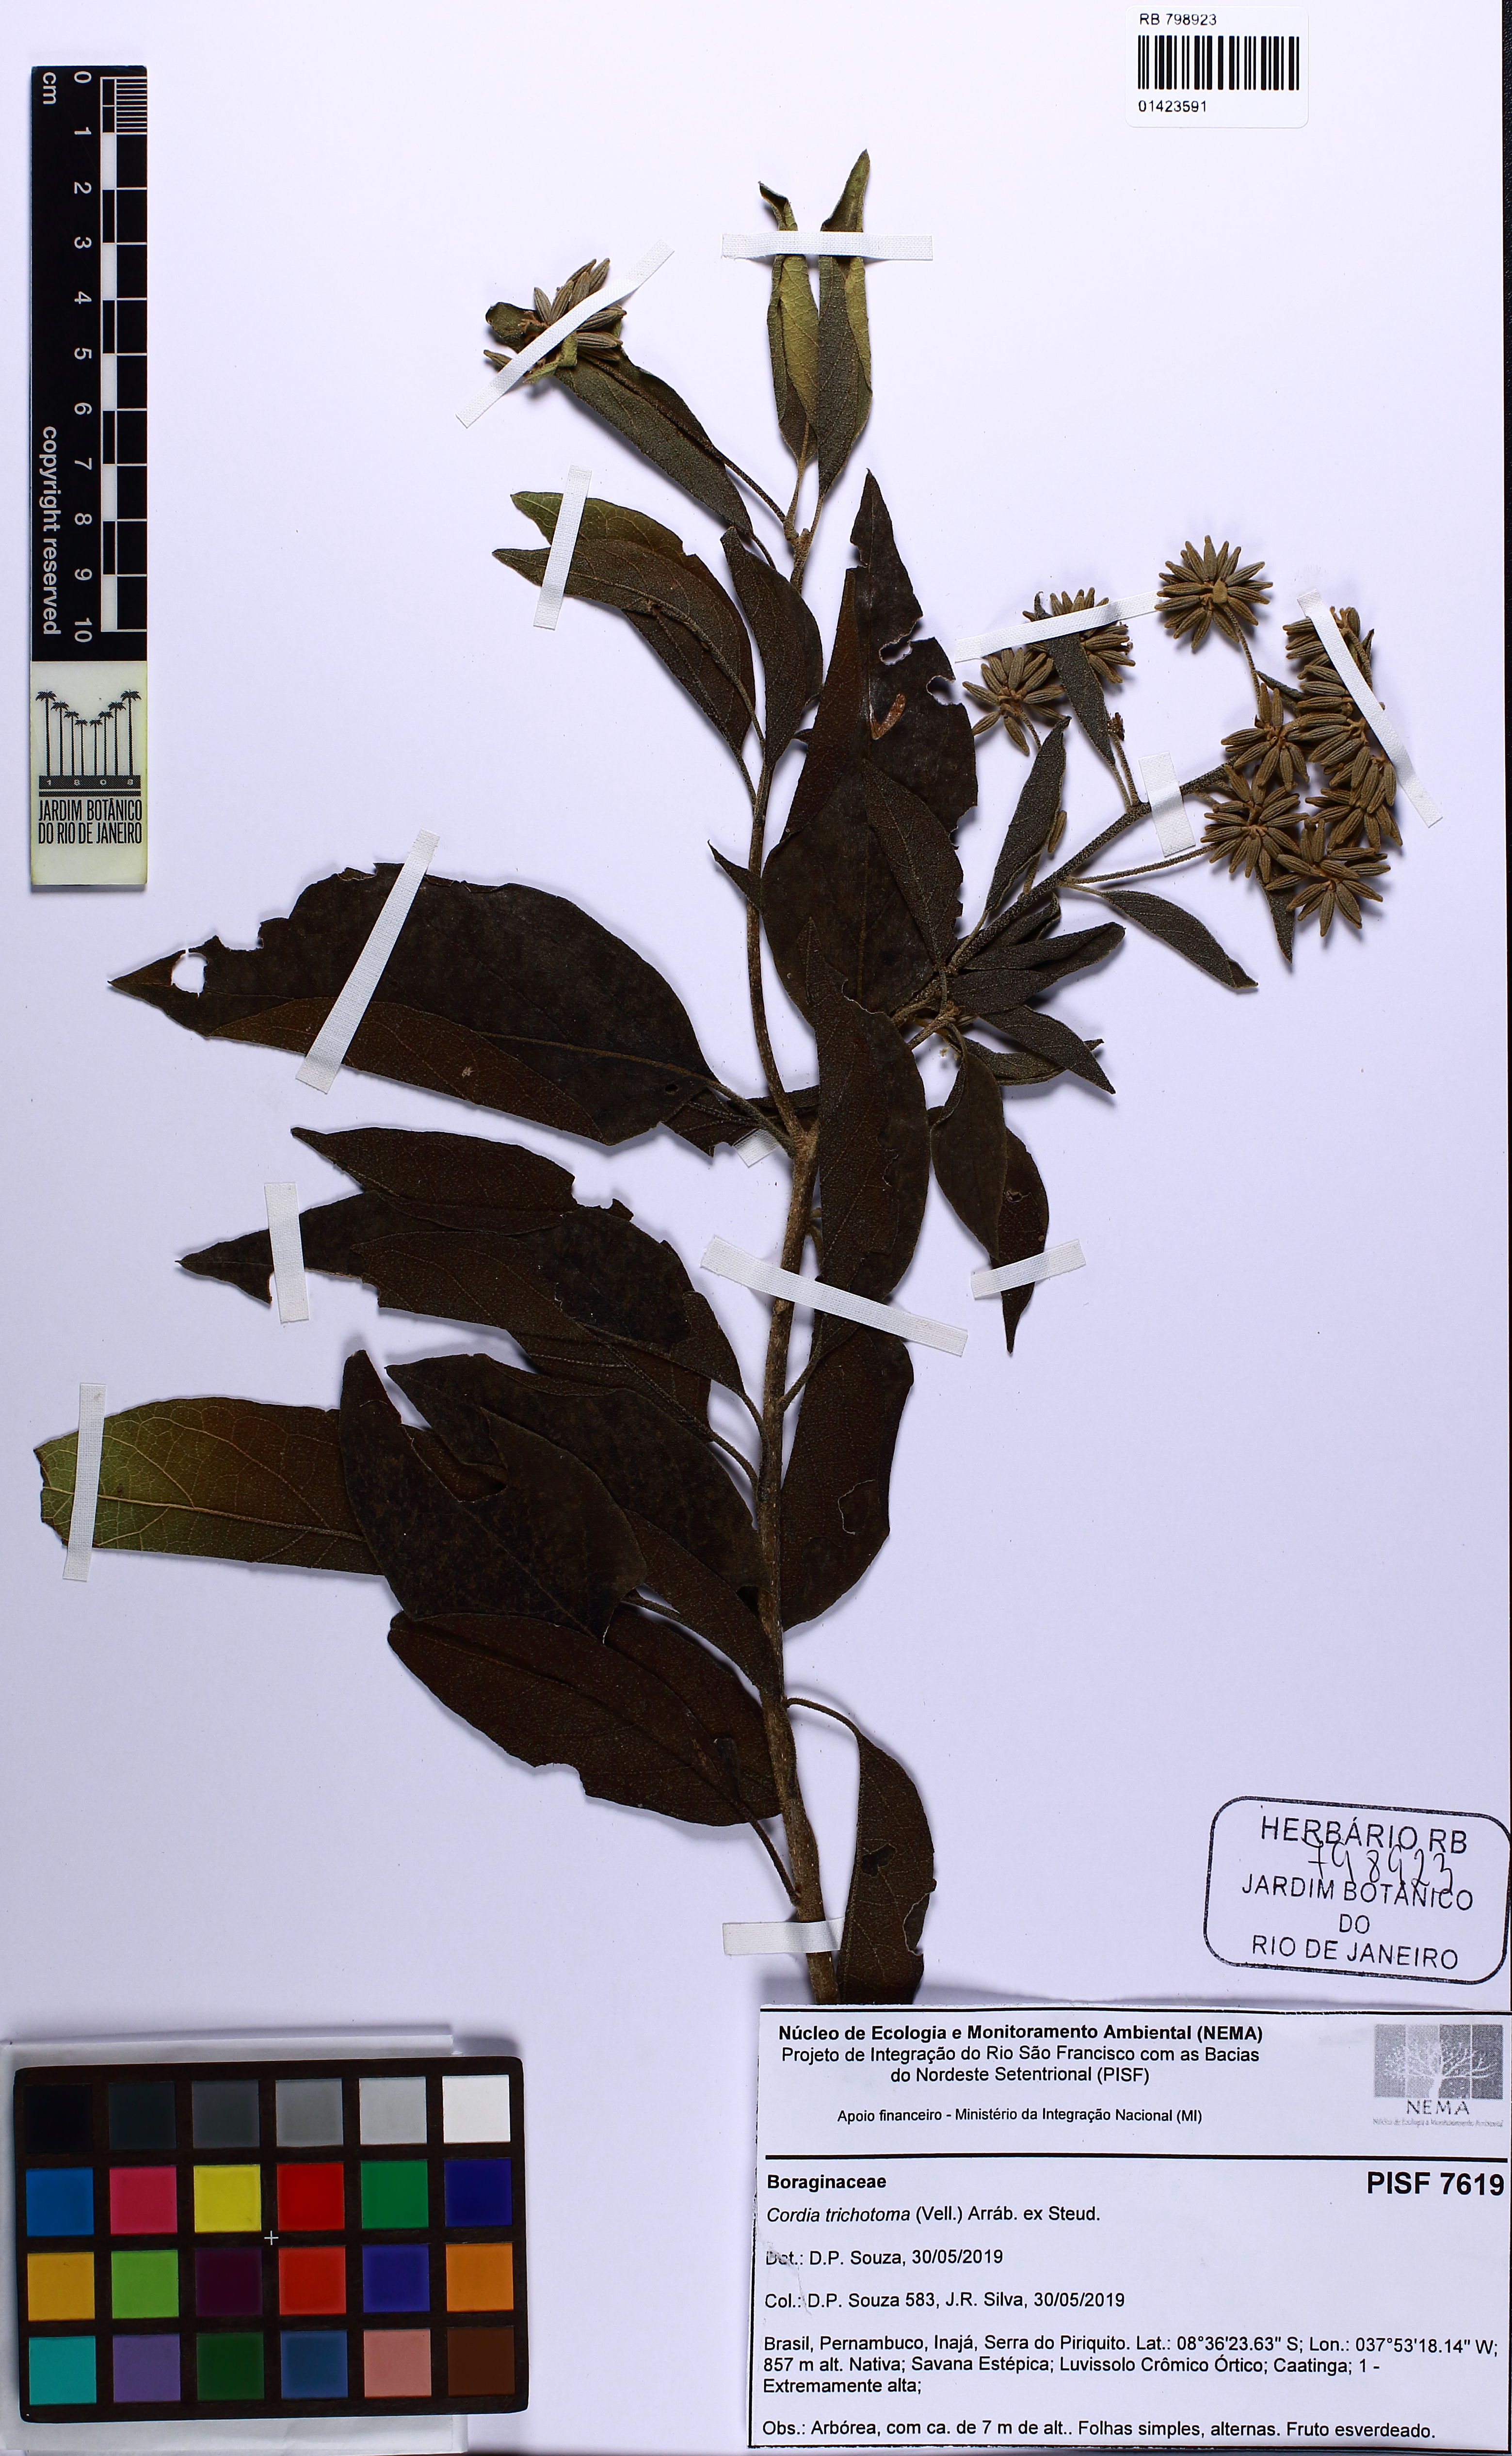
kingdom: Plantae
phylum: Tracheophyta
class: Magnoliopsida
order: Boraginales
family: Cordiaceae
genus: Cordia
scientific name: Cordia trichotoma
